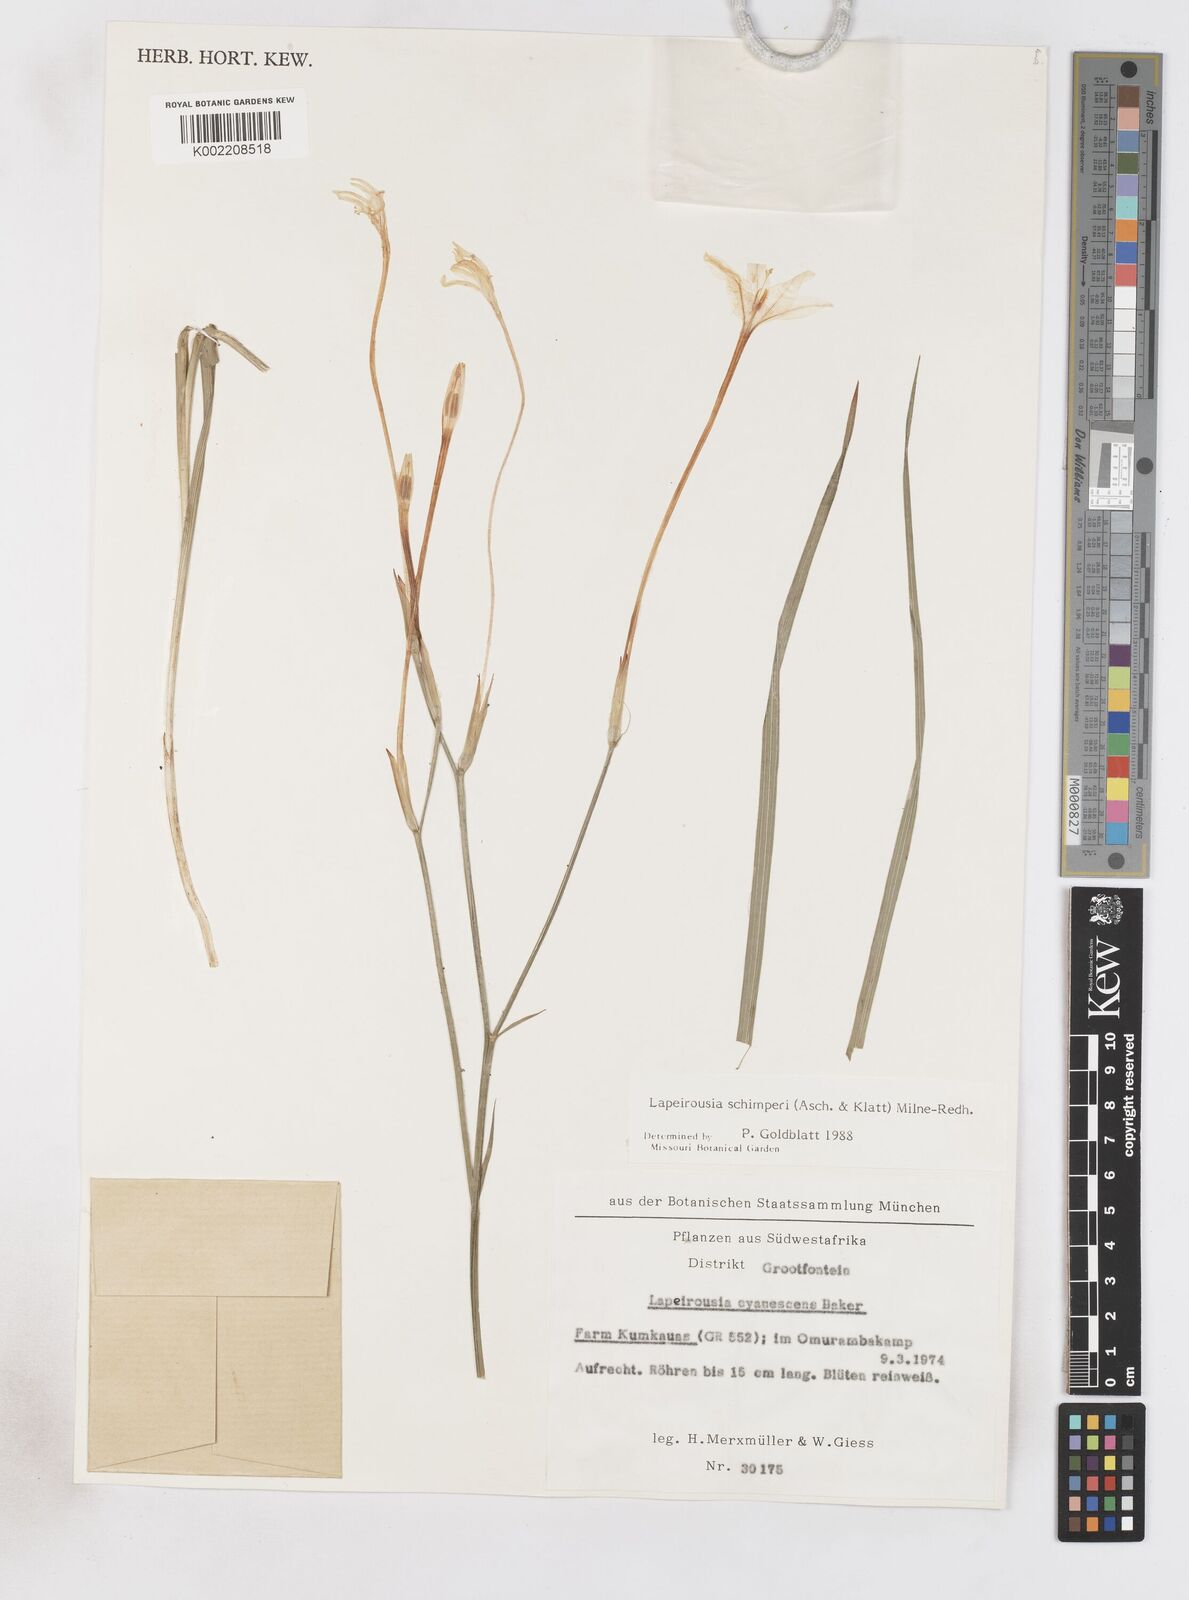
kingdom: Plantae
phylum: Tracheophyta
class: Liliopsida
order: Asparagales
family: Iridaceae
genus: Afrosolen
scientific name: Afrosolen schimperi
